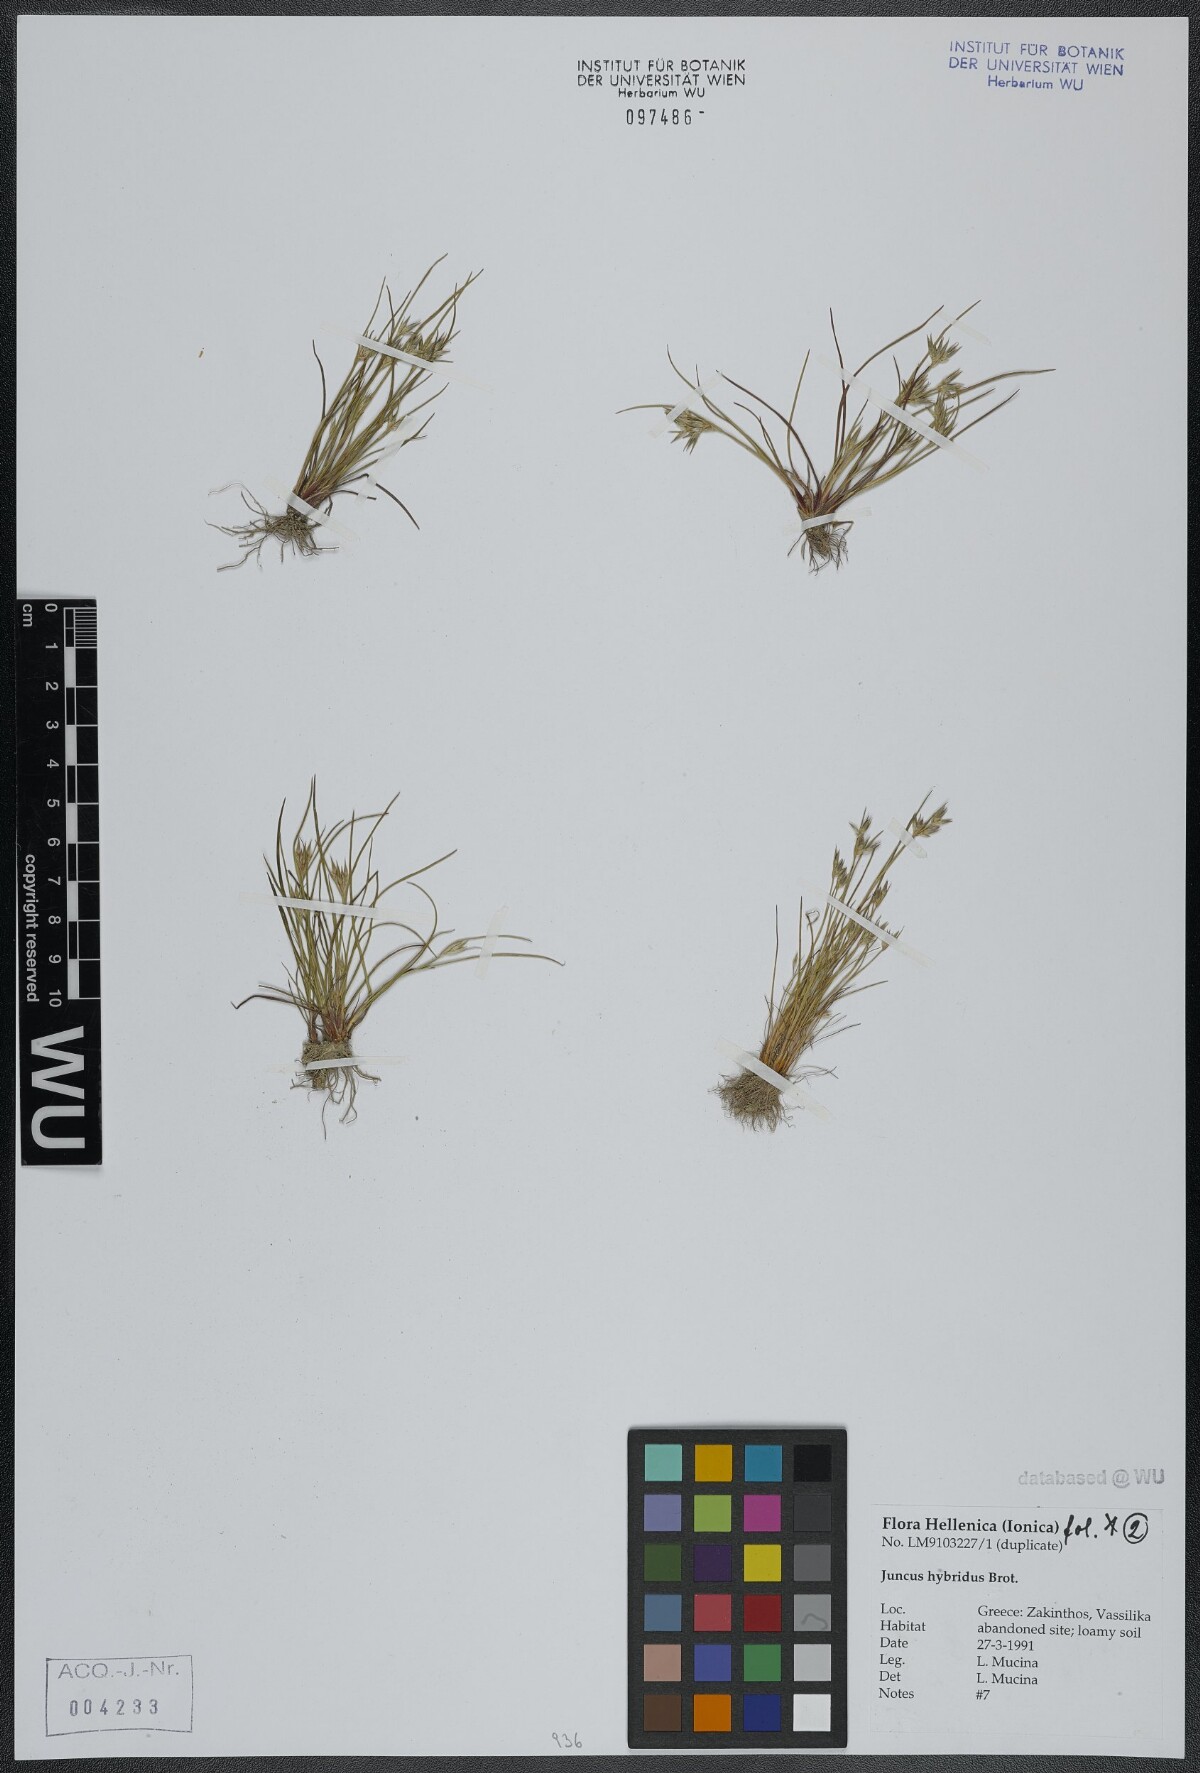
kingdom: Plantae
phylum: Tracheophyta
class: Liliopsida
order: Poales
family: Juncaceae
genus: Juncus
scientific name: Juncus hybridus
